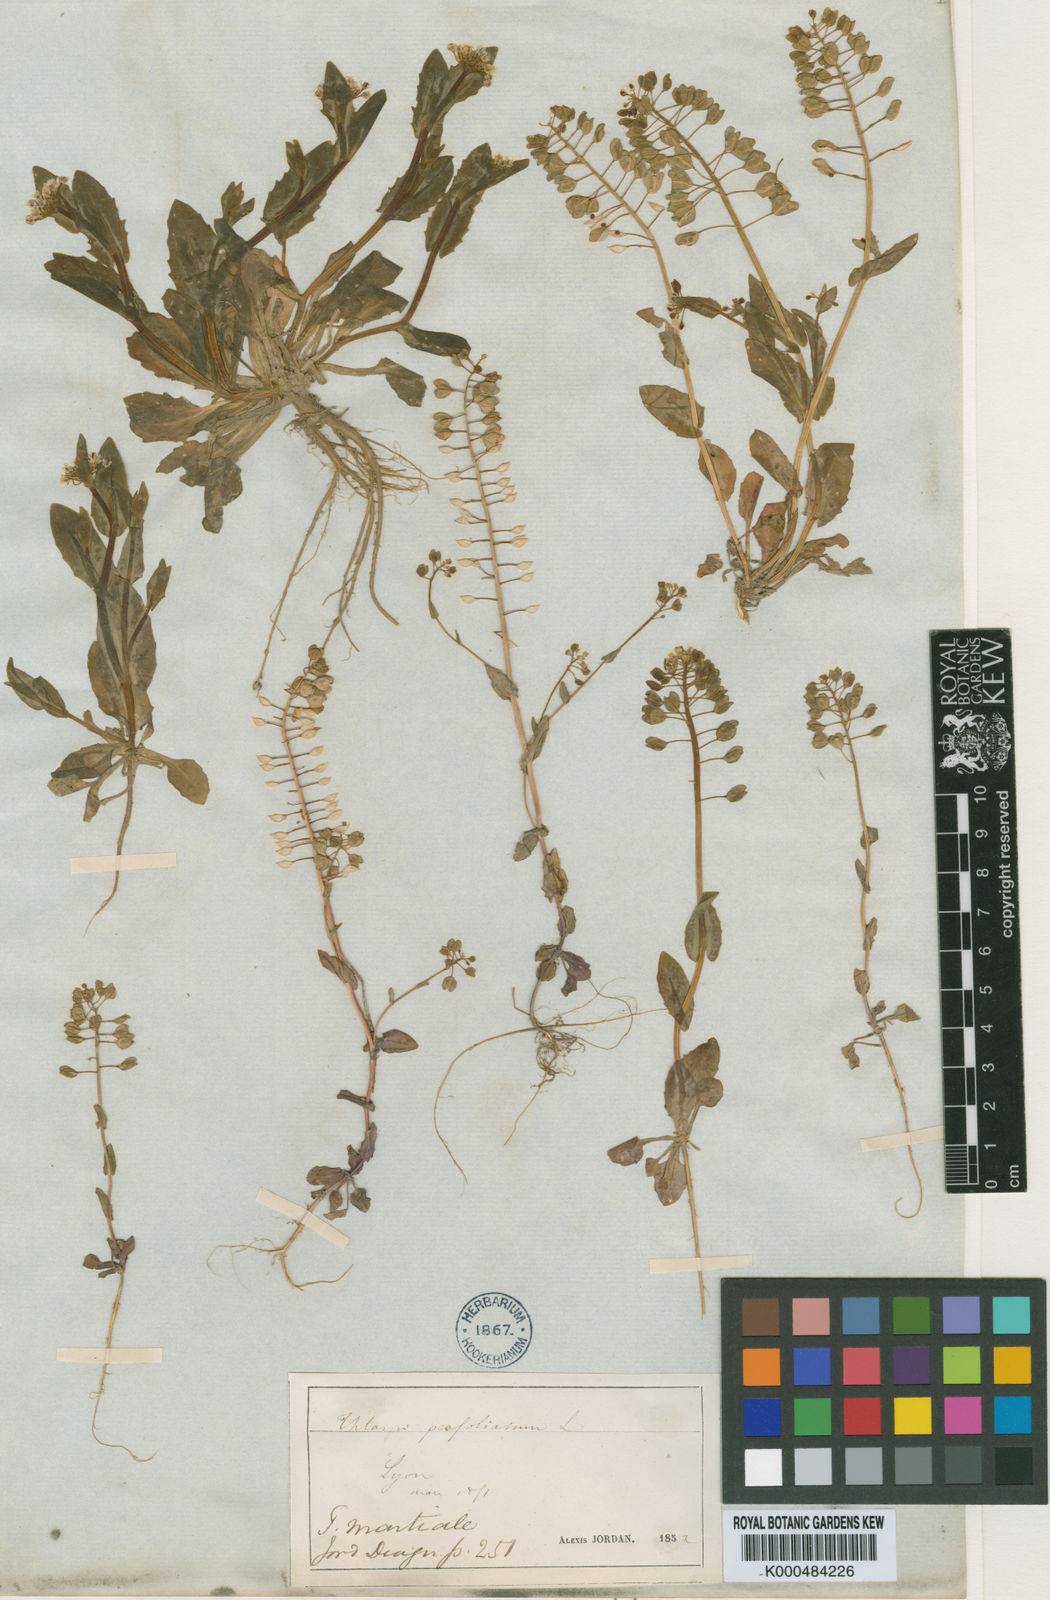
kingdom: Plantae
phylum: Tracheophyta
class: Magnoliopsida
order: Brassicales
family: Brassicaceae
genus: Noccaea
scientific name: Noccaea perfoliata
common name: Perfoliate pennycress
